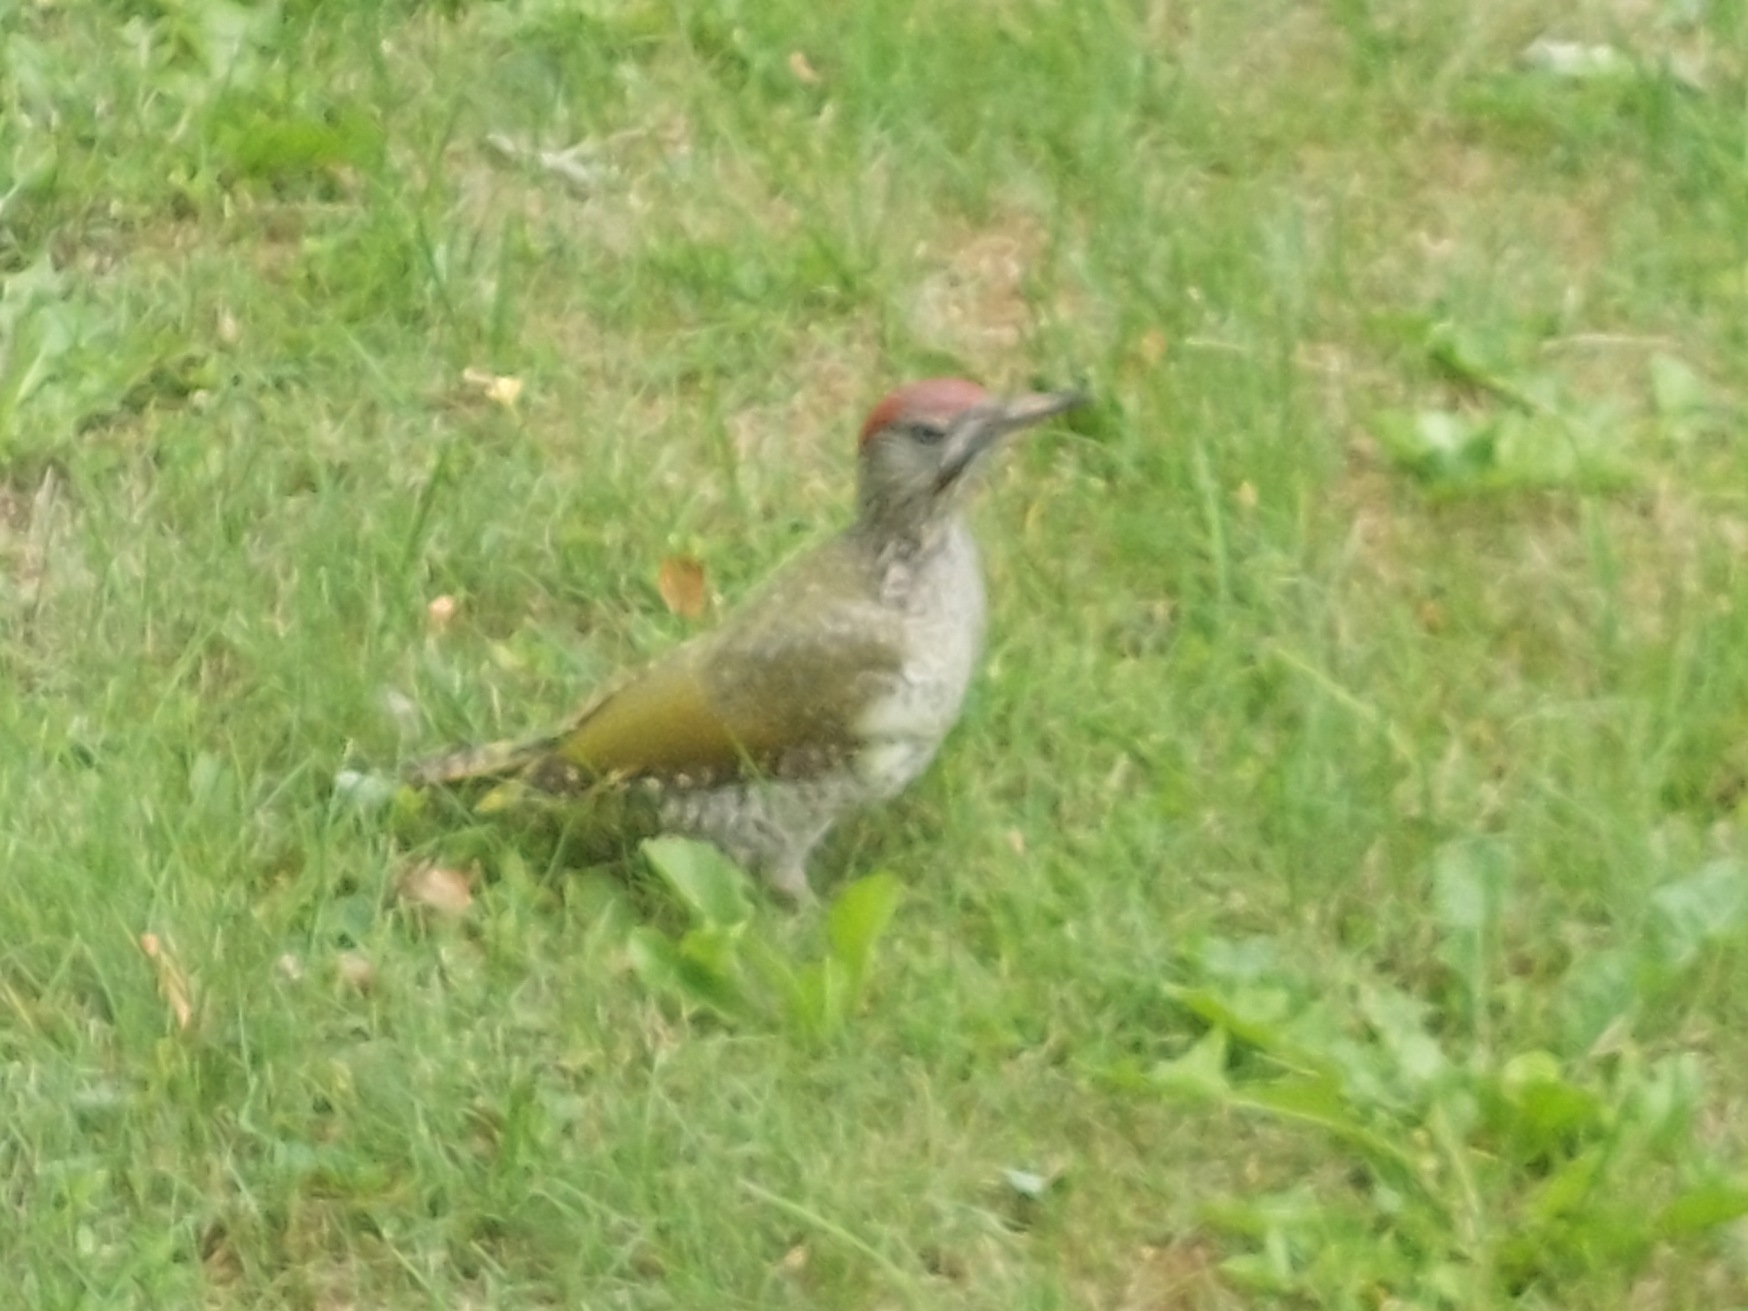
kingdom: Animalia
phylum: Chordata
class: Aves
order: Piciformes
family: Picidae
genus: Picus
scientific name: Picus viridis
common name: Grønspætte
